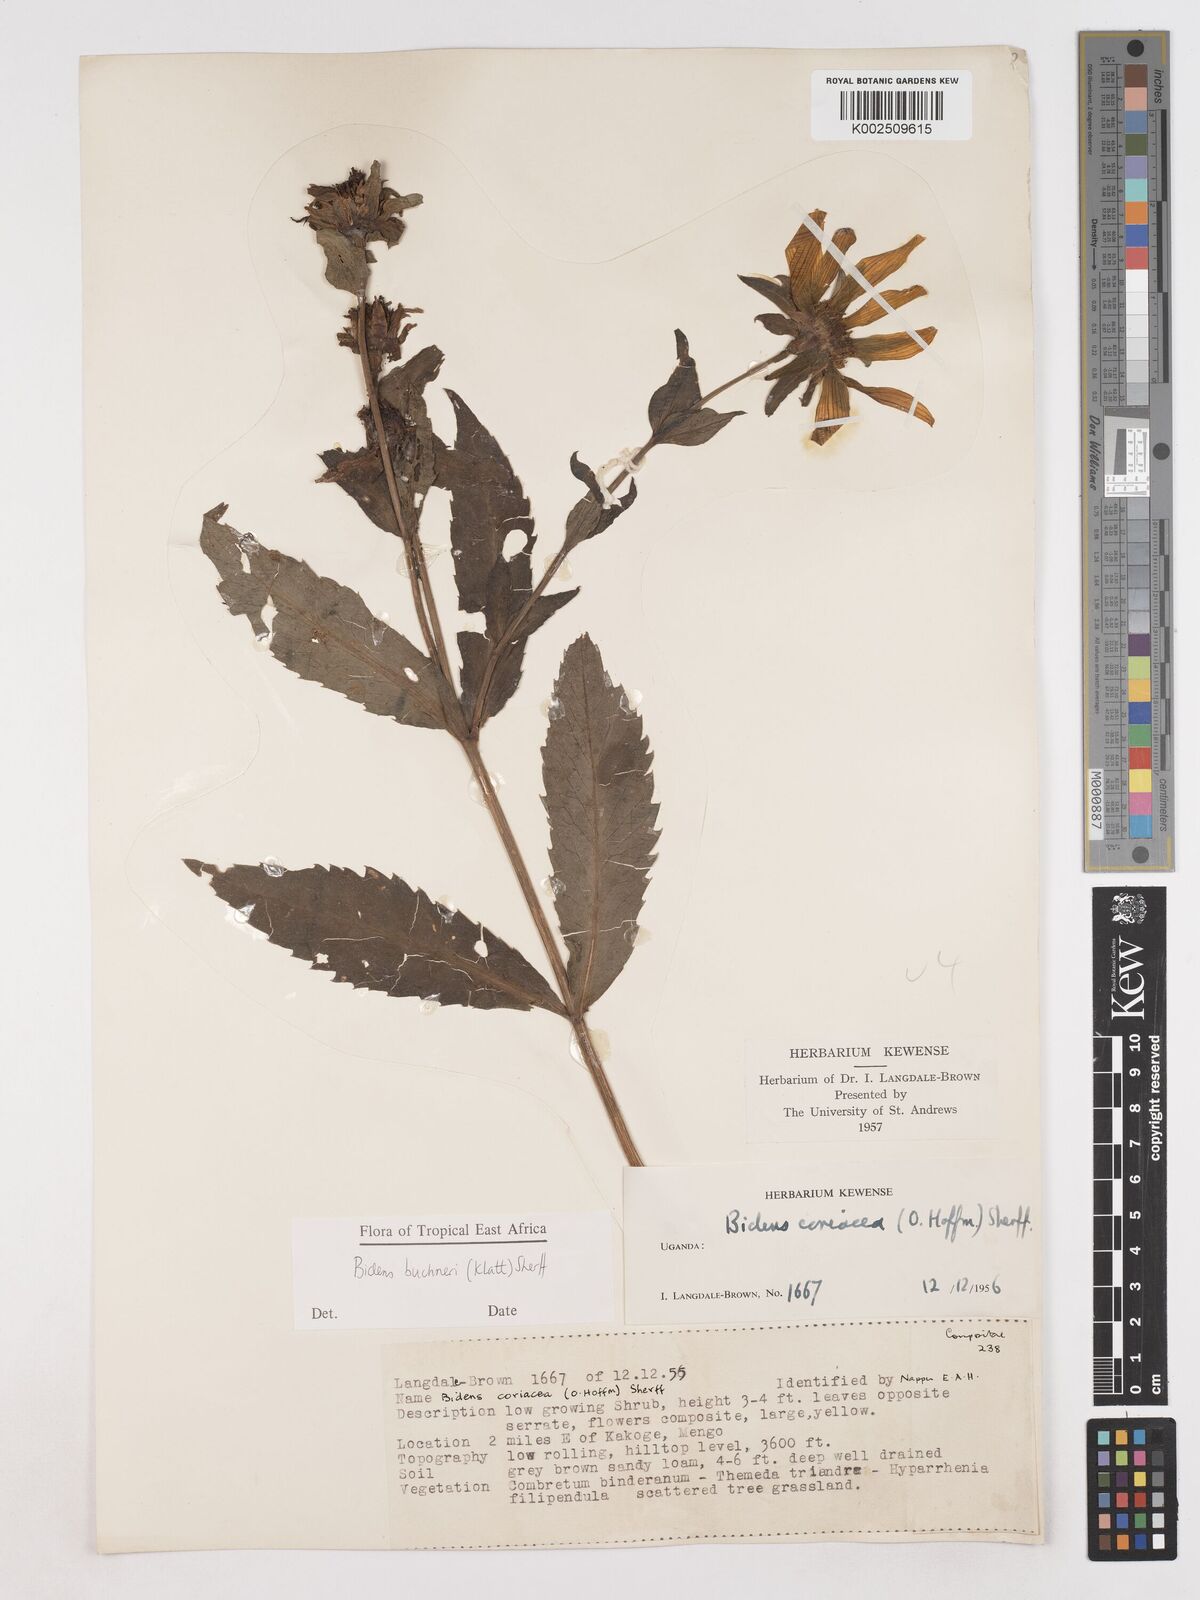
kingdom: Plantae
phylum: Tracheophyta
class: Magnoliopsida
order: Asterales
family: Asteraceae
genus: Bidens
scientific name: Bidens buchneri
